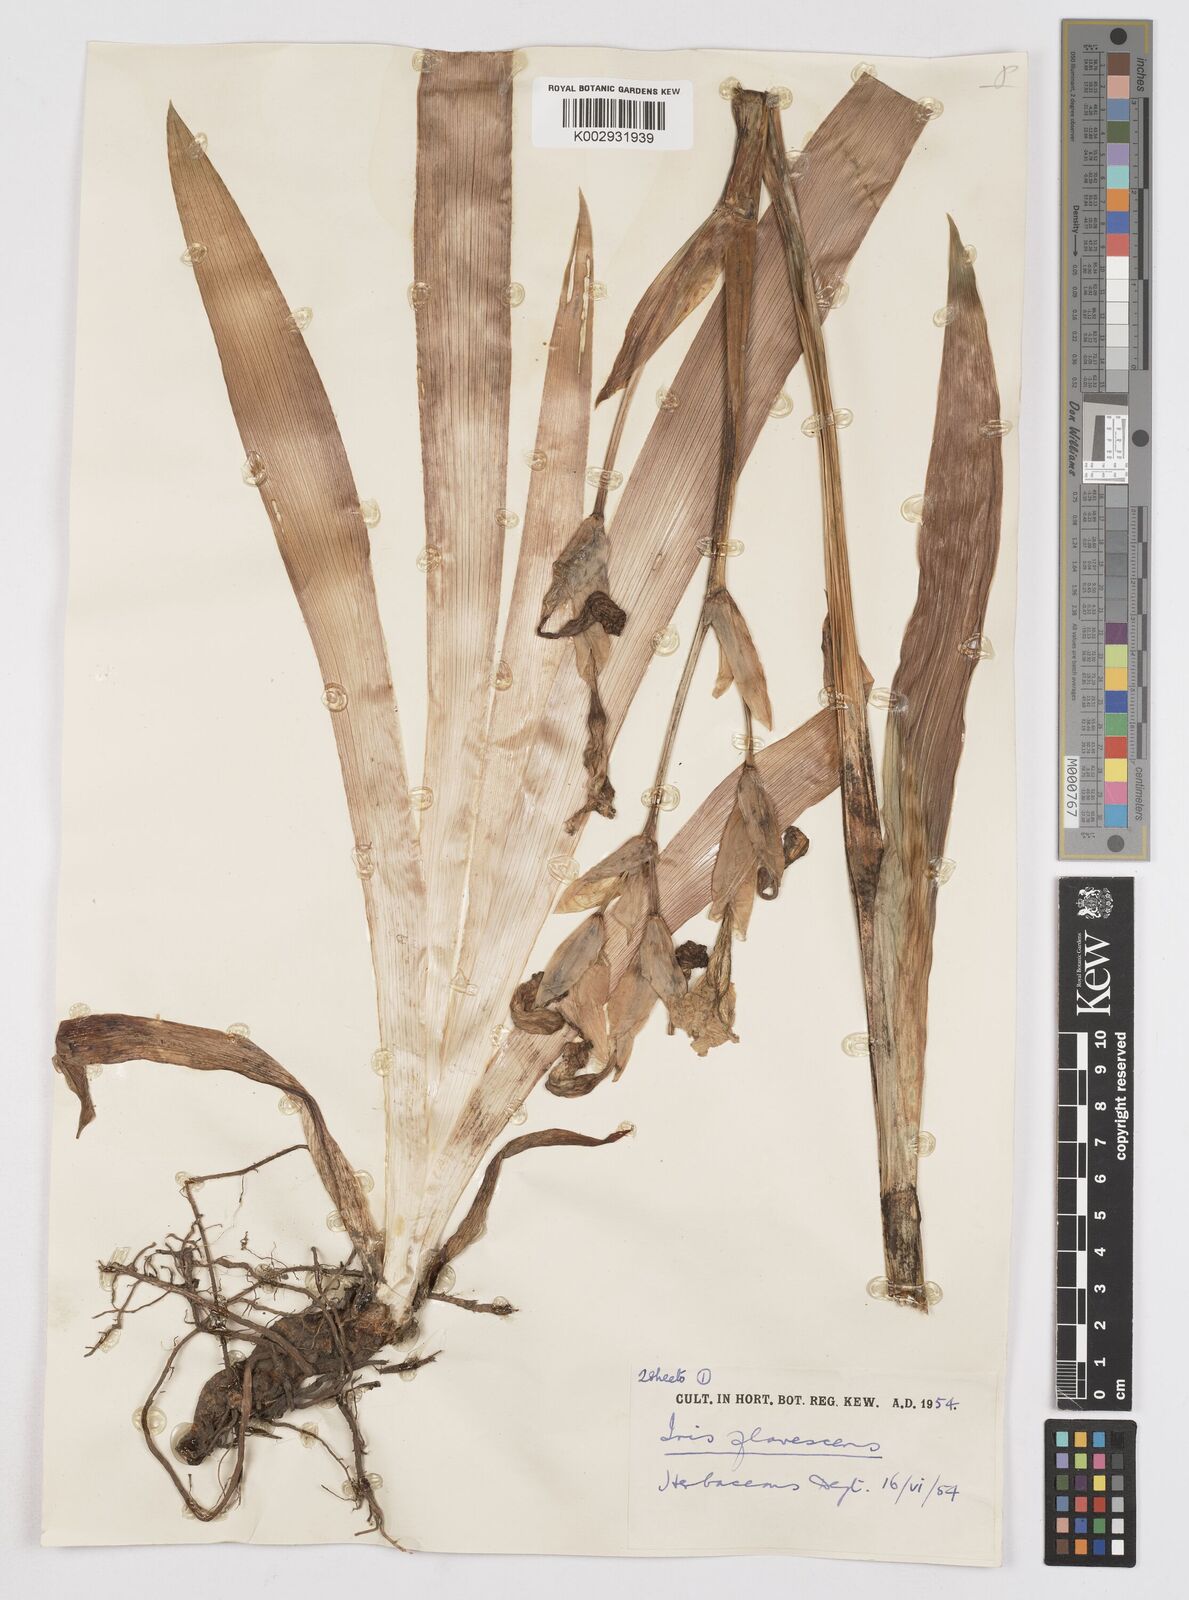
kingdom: Plantae
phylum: Tracheophyta
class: Liliopsida
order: Asparagales
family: Iridaceae
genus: Iris
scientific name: Iris variegata
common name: Hungarian iris
